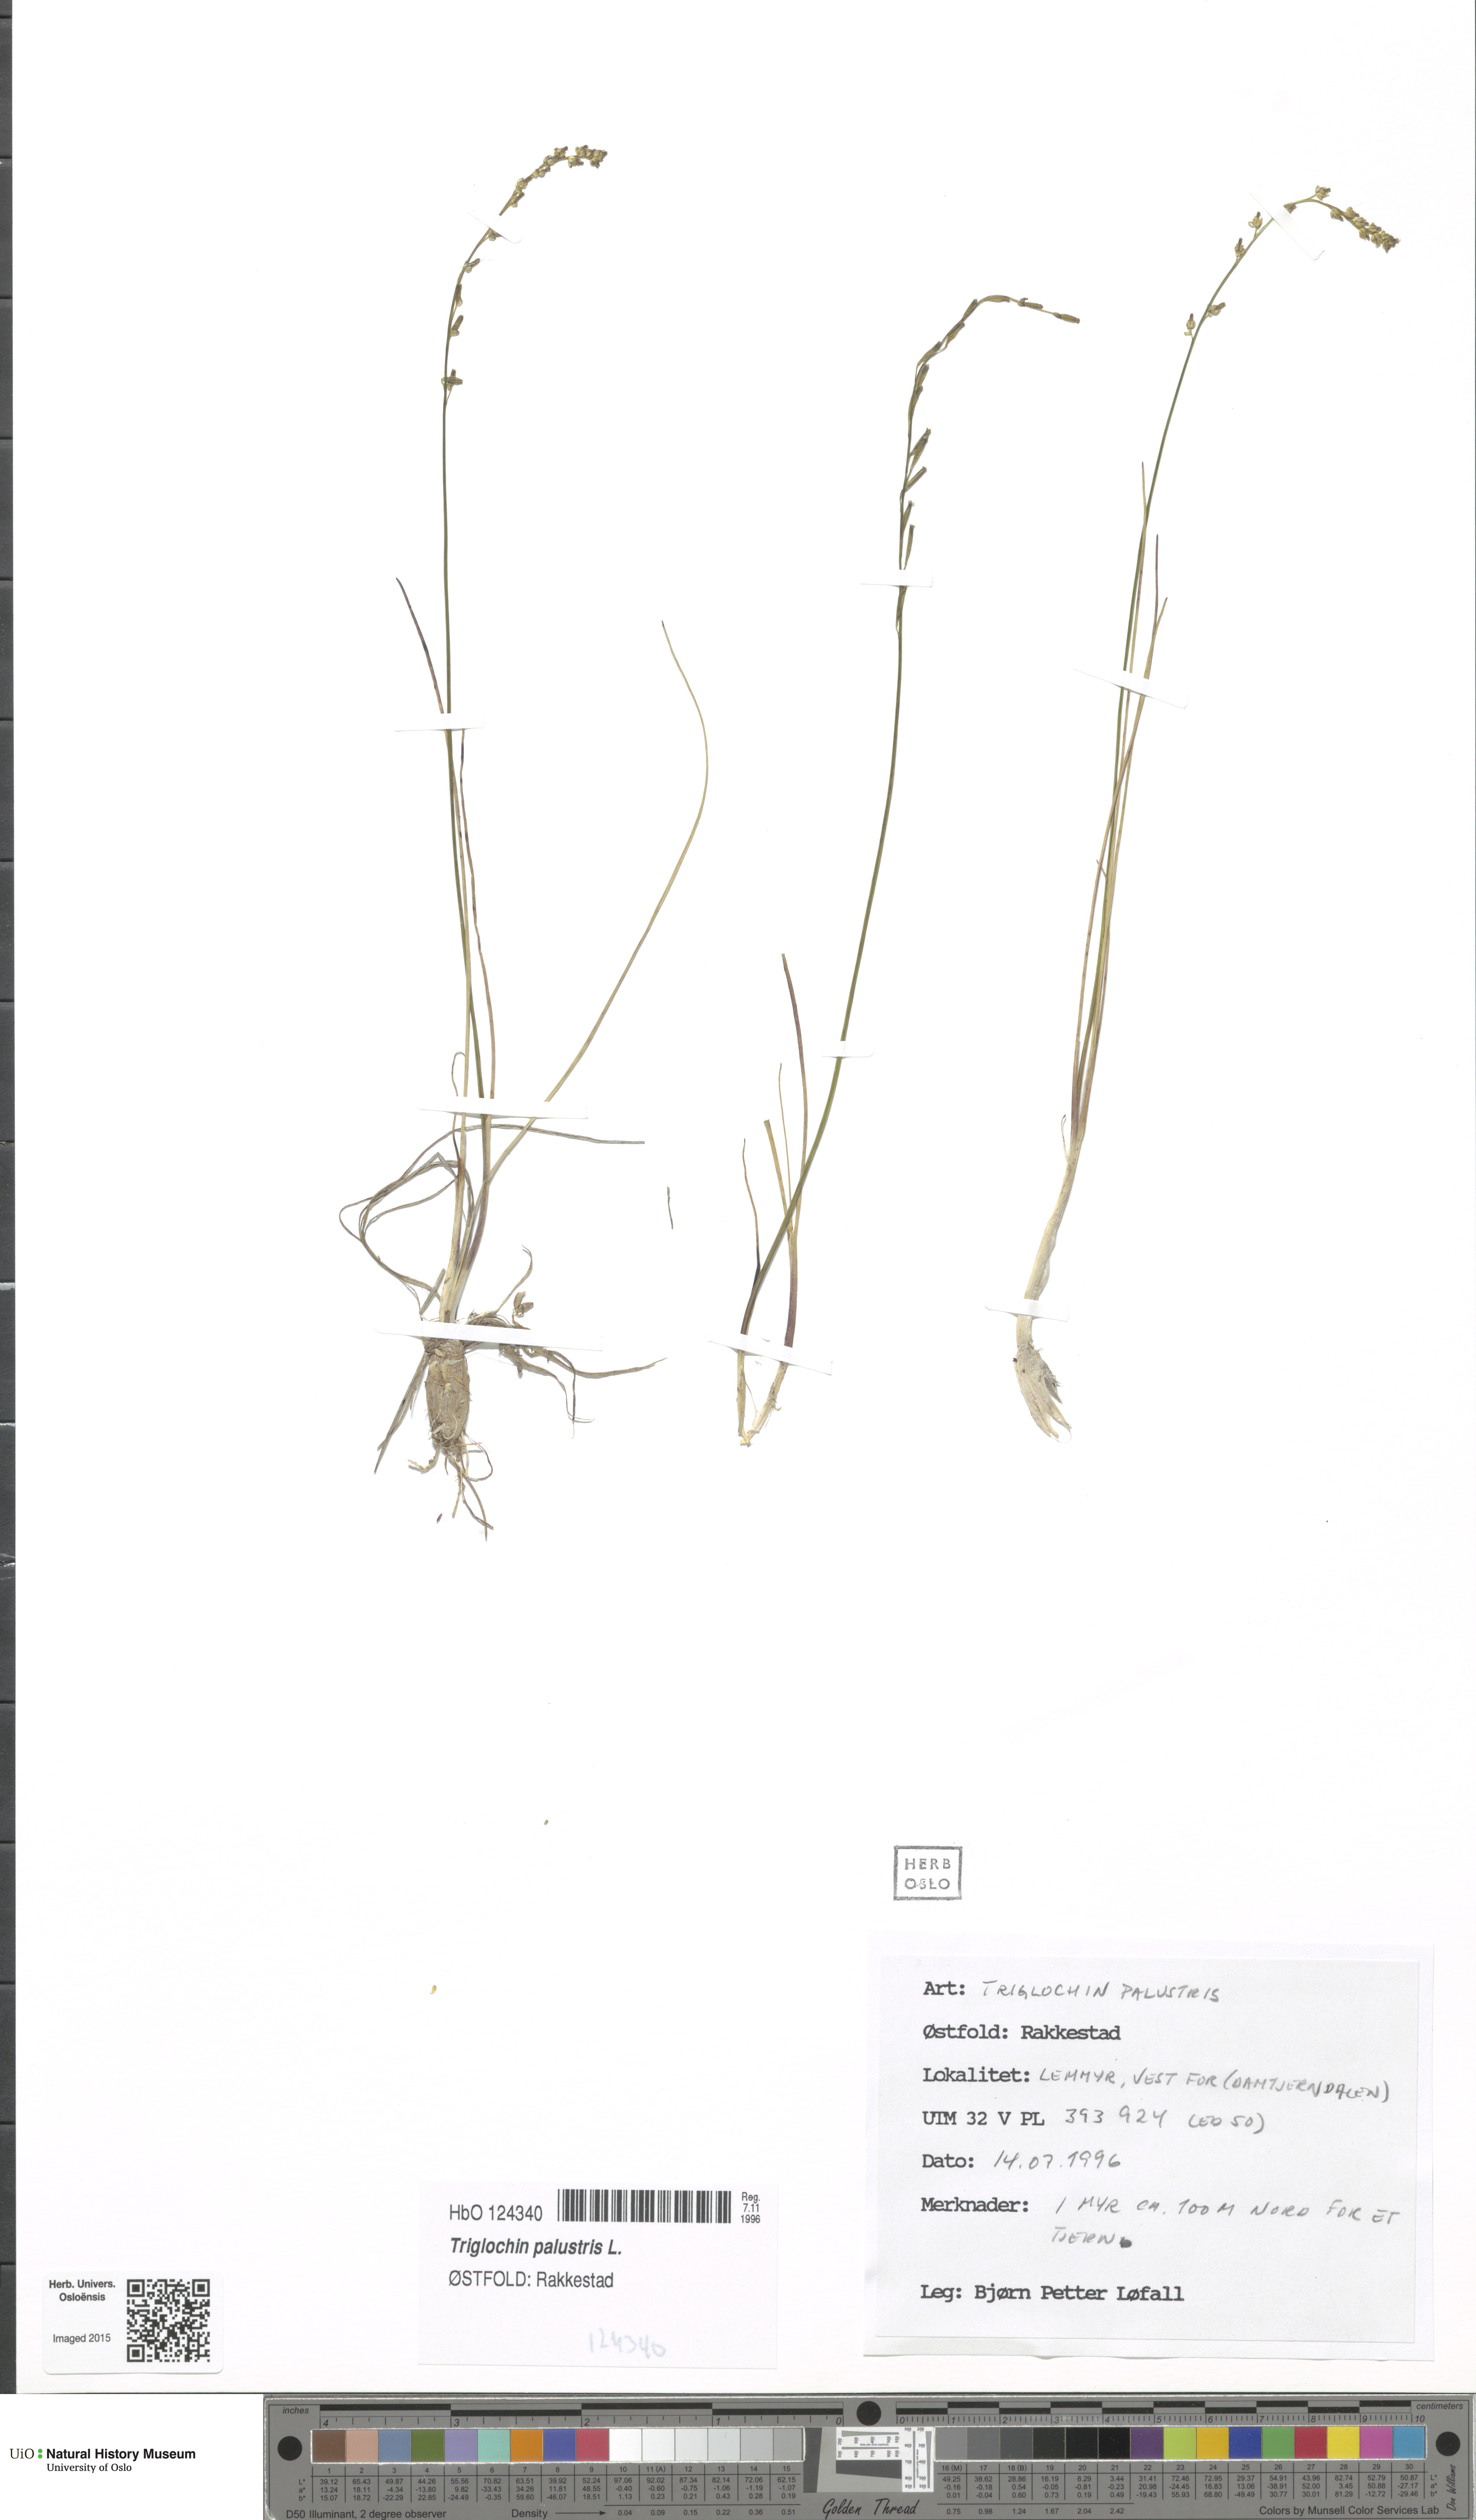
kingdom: Plantae
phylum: Tracheophyta
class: Liliopsida
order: Alismatales
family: Juncaginaceae
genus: Triglochin
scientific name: Triglochin palustris
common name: Marsh arrowgrass
